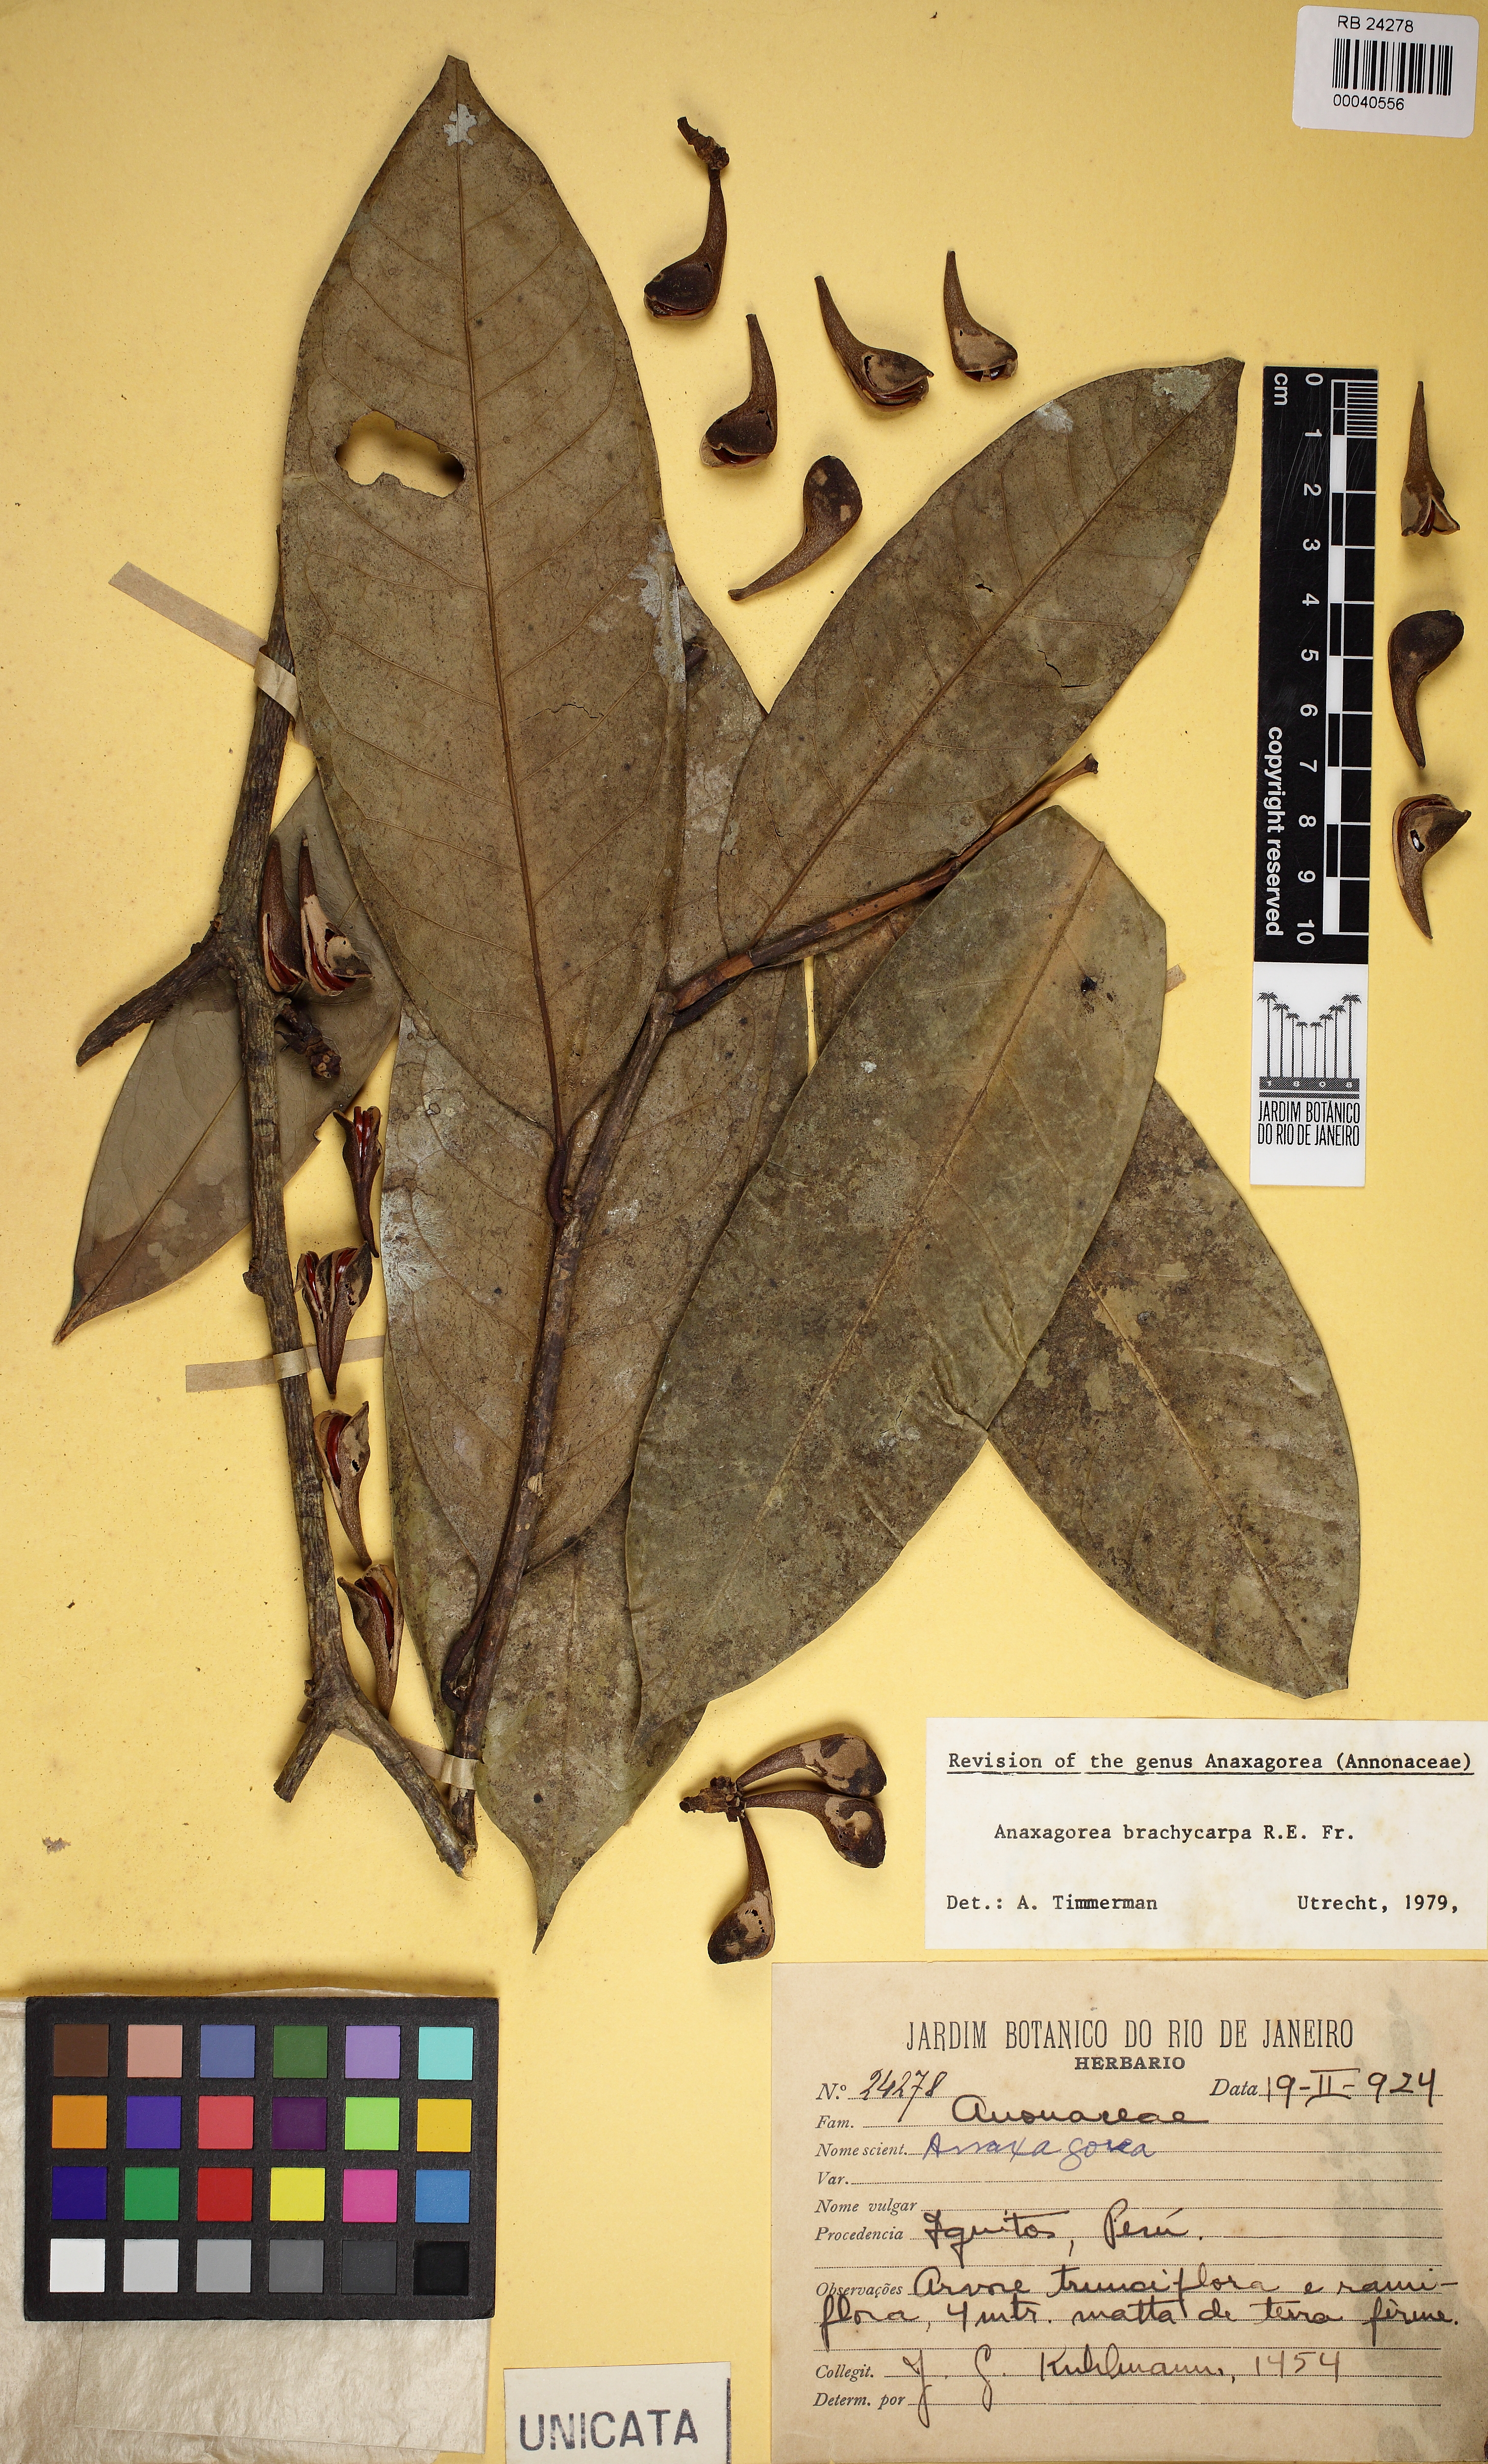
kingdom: Plantae
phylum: Tracheophyta
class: Magnoliopsida
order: Magnoliales
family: Annonaceae
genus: Anaxagorea
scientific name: Anaxagorea brachycarpa
